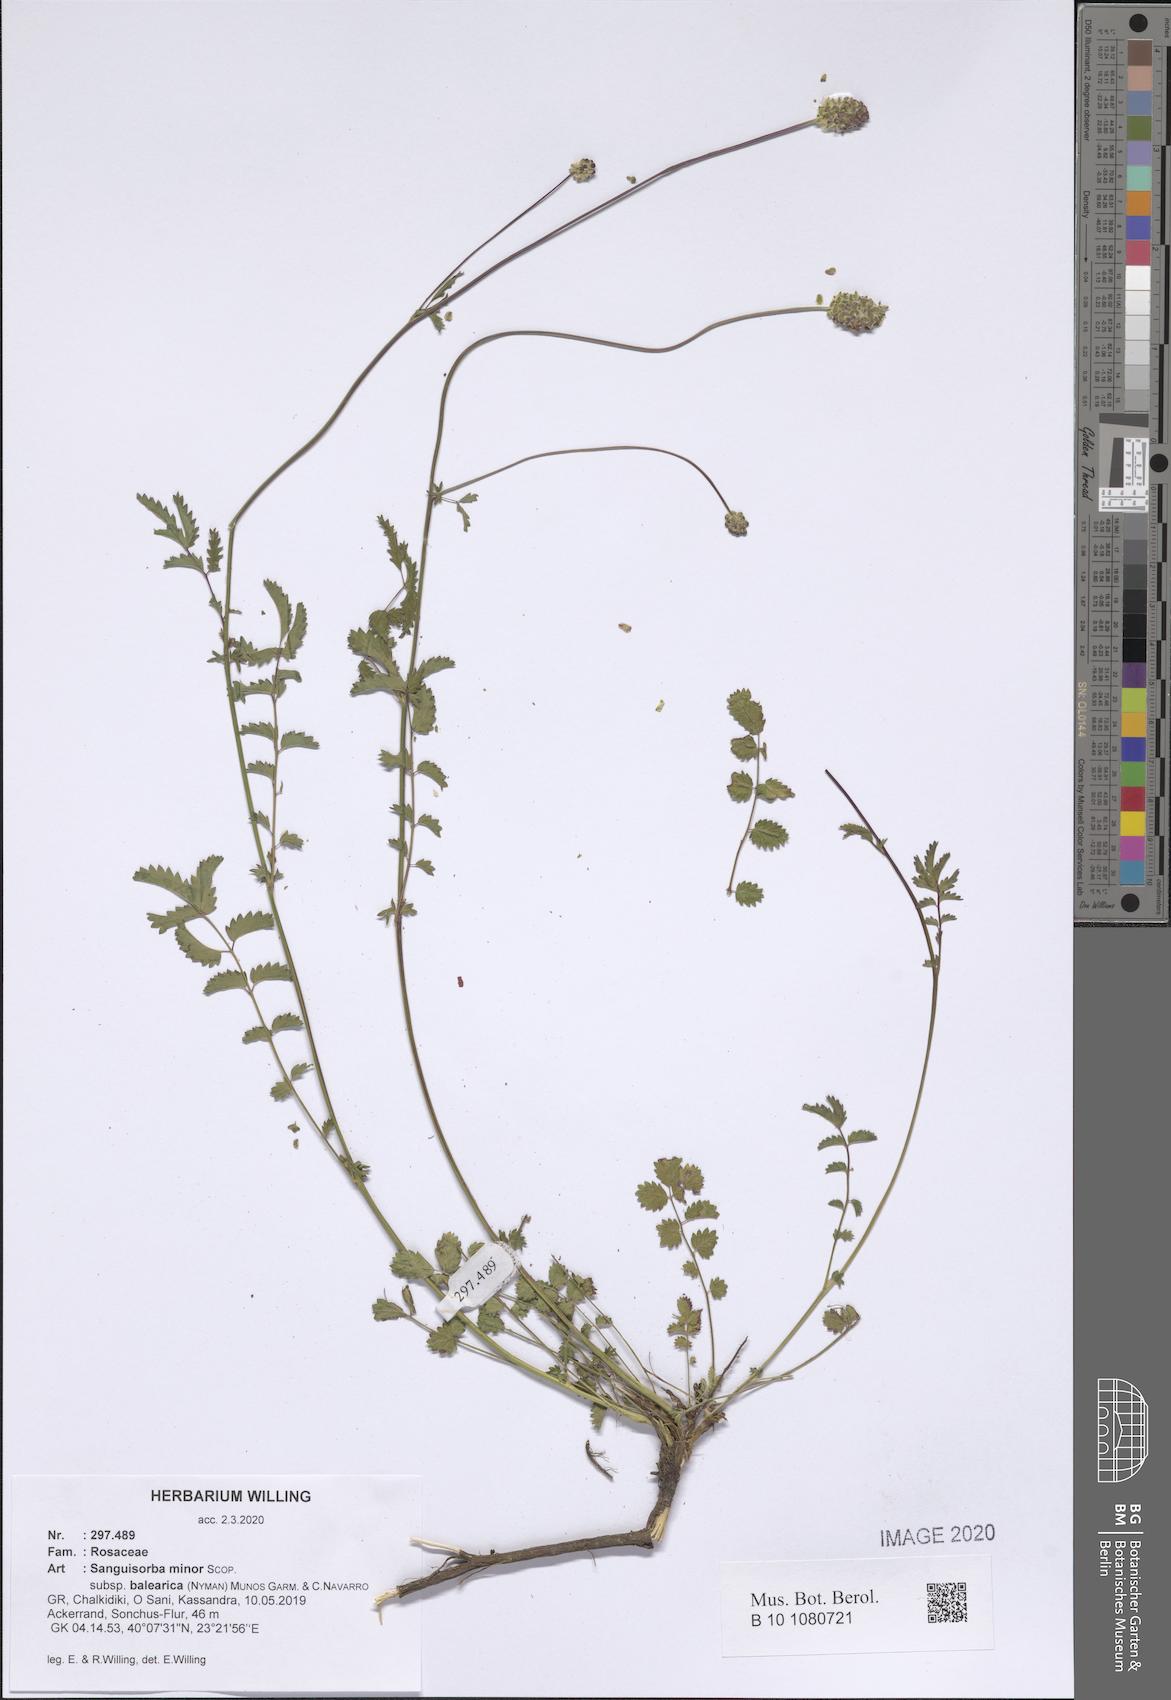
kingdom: Plantae
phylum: Tracheophyta
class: Magnoliopsida
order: Rosales
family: Rosaceae
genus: Poterium
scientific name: Poterium sanguisorba
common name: Salad burnet
